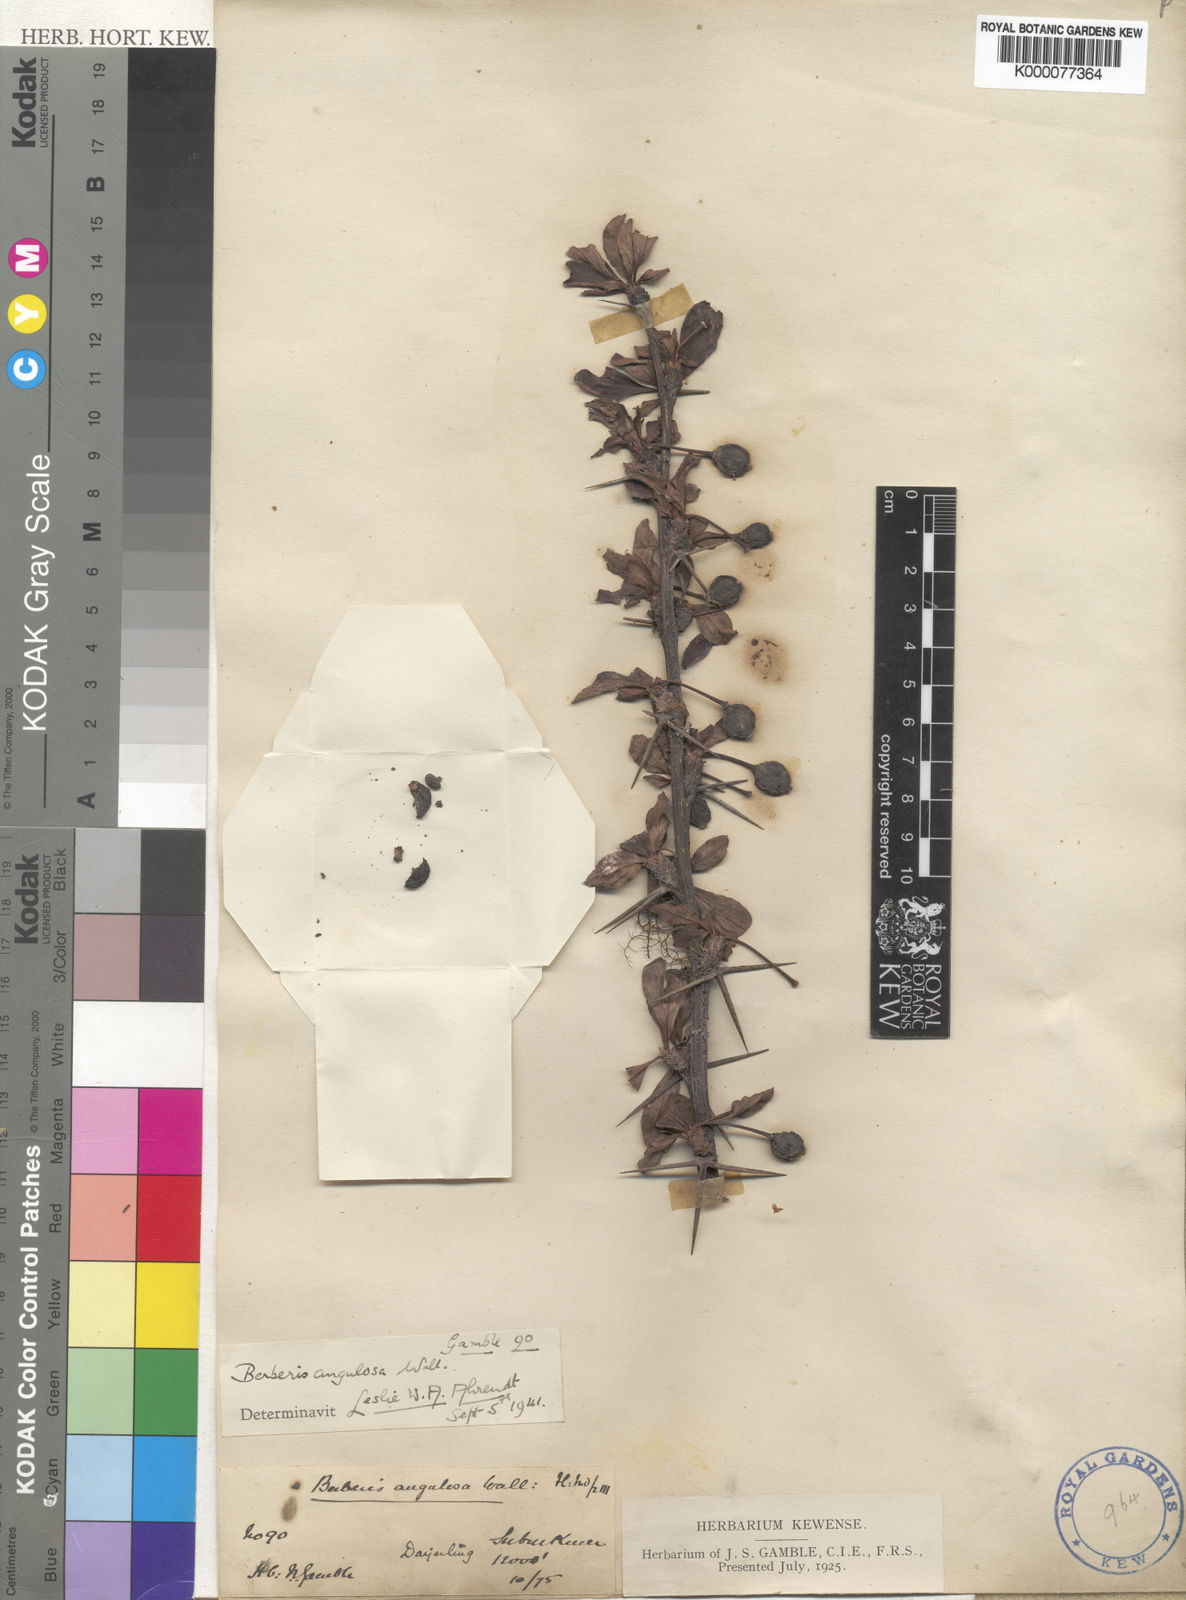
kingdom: Plantae
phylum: Tracheophyta
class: Magnoliopsida
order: Ranunculales
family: Berberidaceae
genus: Berberis
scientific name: Berberis
